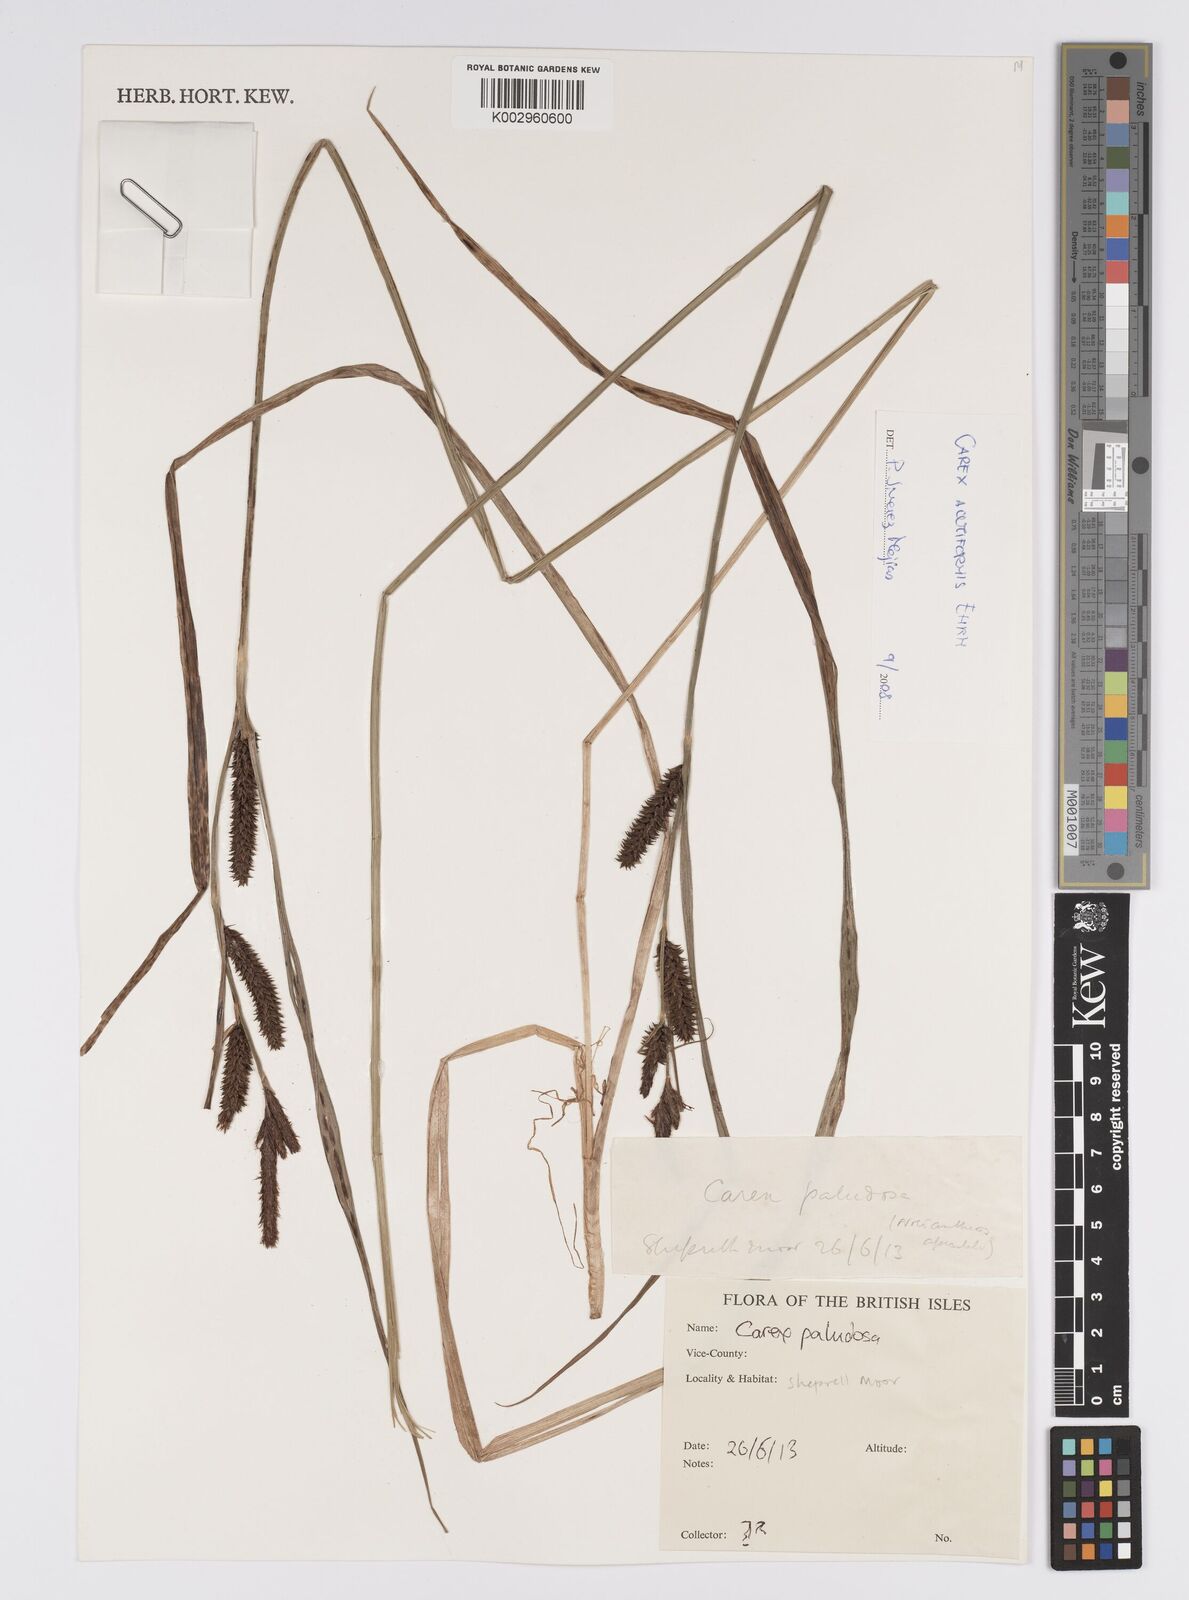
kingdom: Plantae
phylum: Tracheophyta
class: Liliopsida
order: Poales
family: Cyperaceae
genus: Carex
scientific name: Carex acutiformis
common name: Lesser pond-sedge
